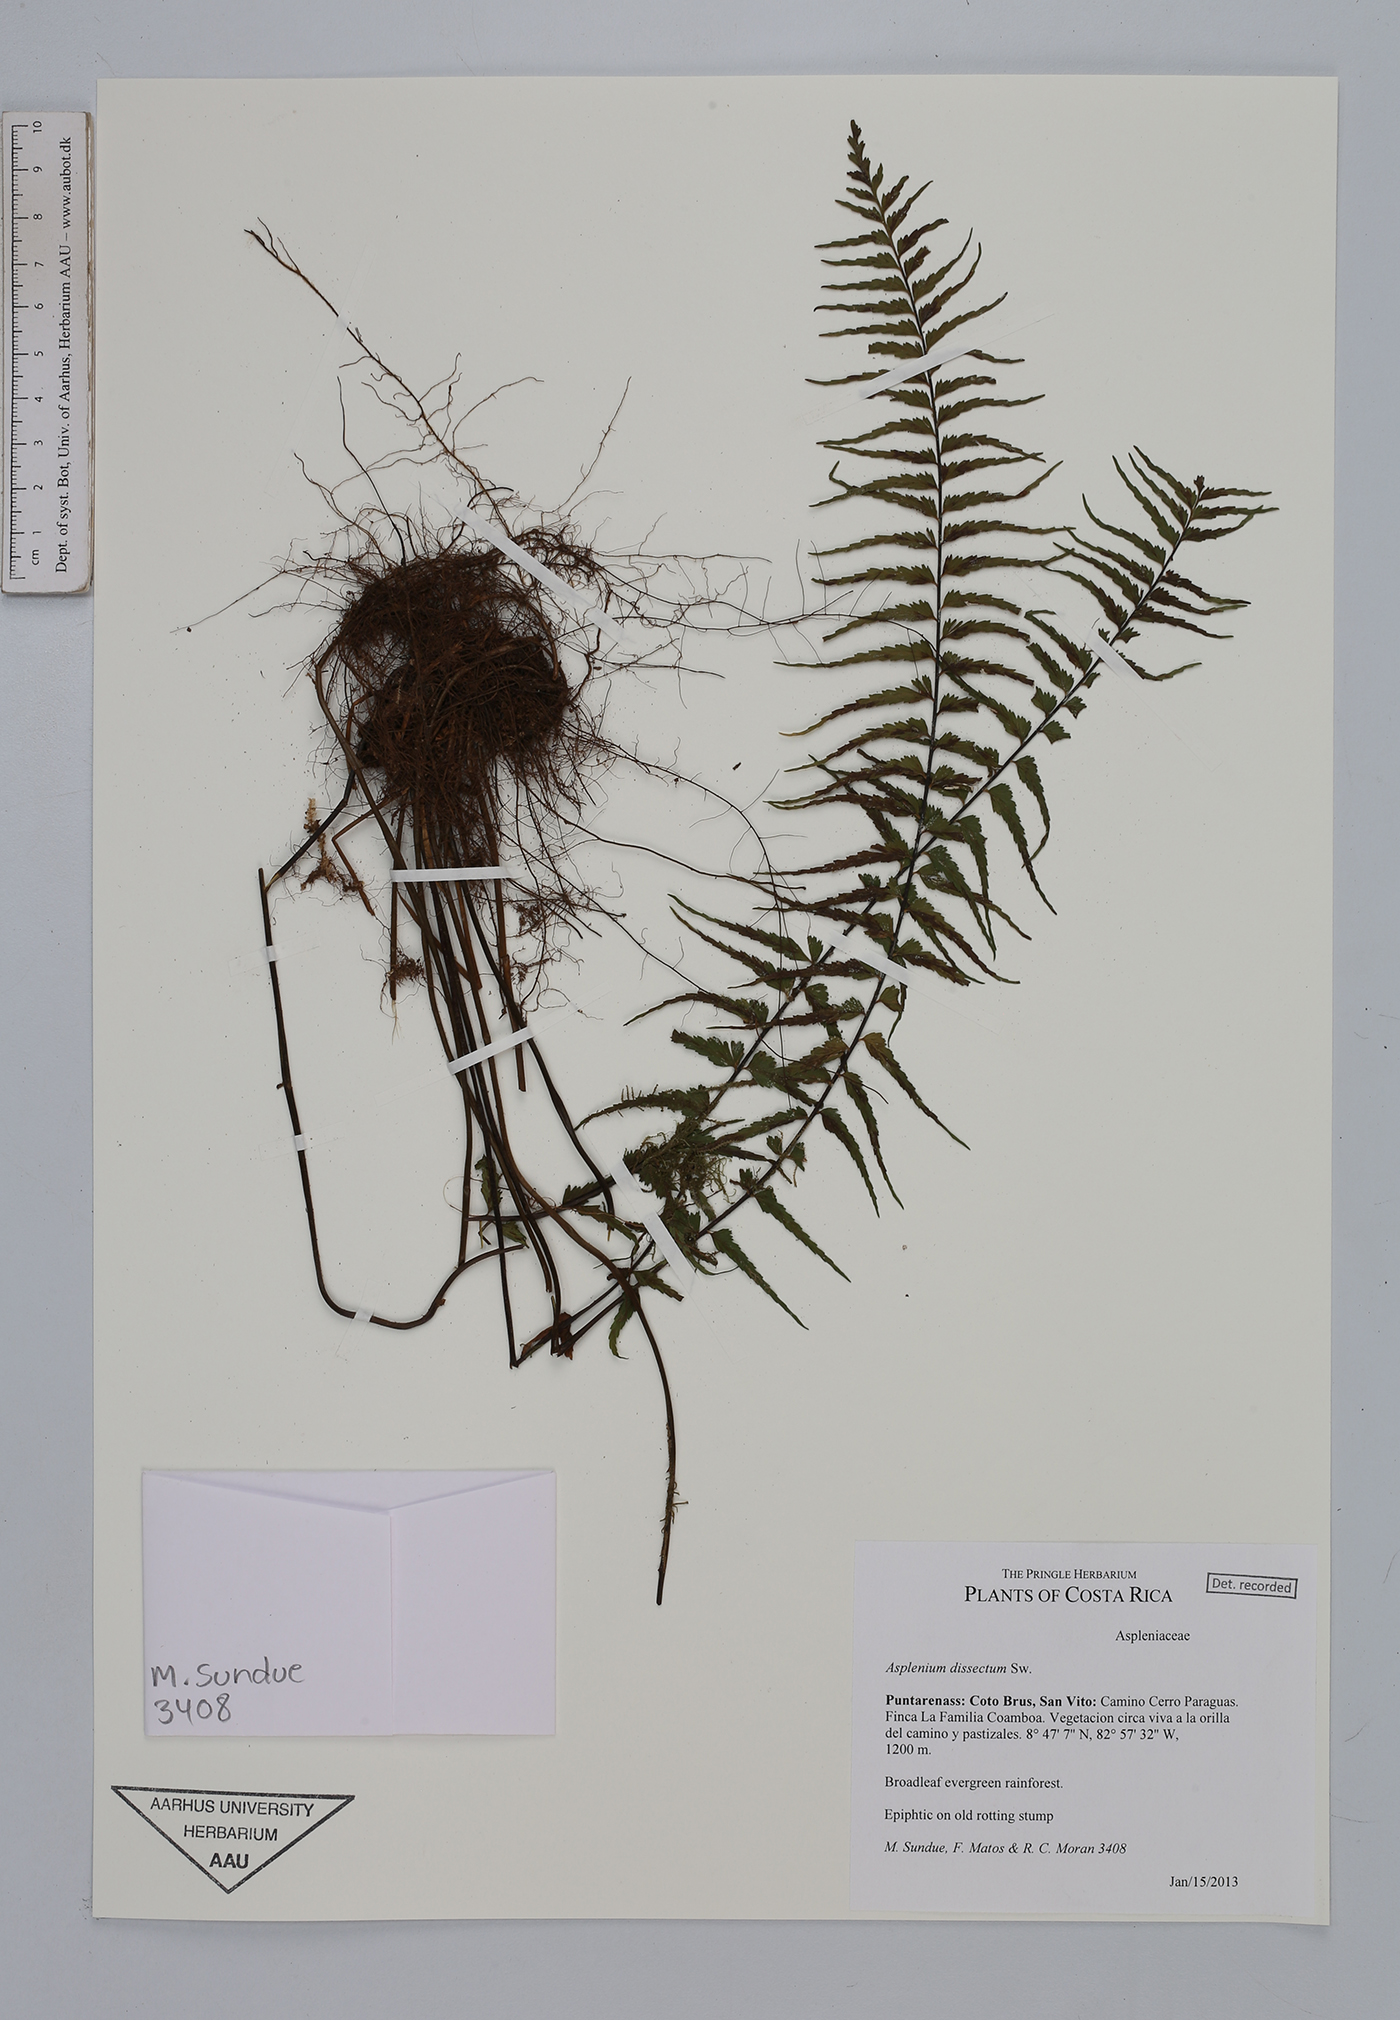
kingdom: Plantae
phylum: Tracheophyta
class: Polypodiopsida
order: Polypodiales
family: Aspleniaceae
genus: Asplenium
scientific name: Asplenium dissectum
